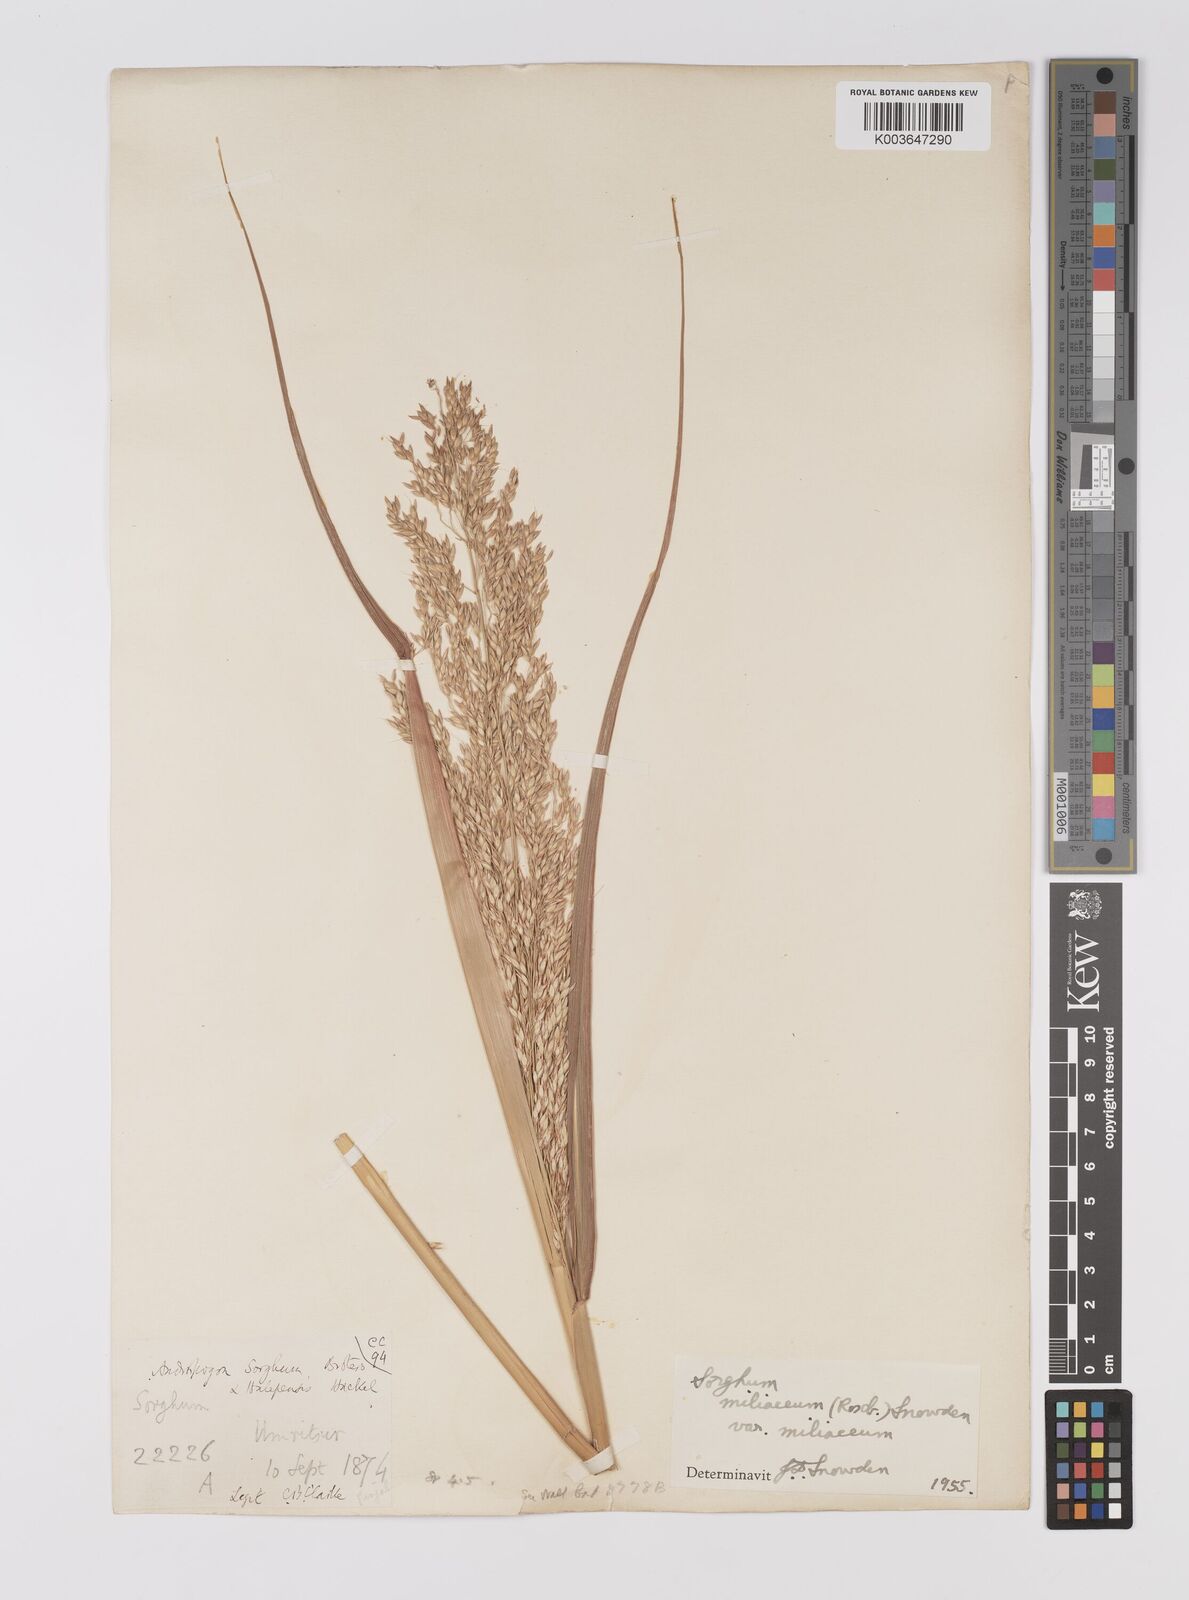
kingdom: Plantae
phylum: Tracheophyta
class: Liliopsida
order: Poales
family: Poaceae
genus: Sorghum
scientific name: Sorghum halepense
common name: Johnson-grass
